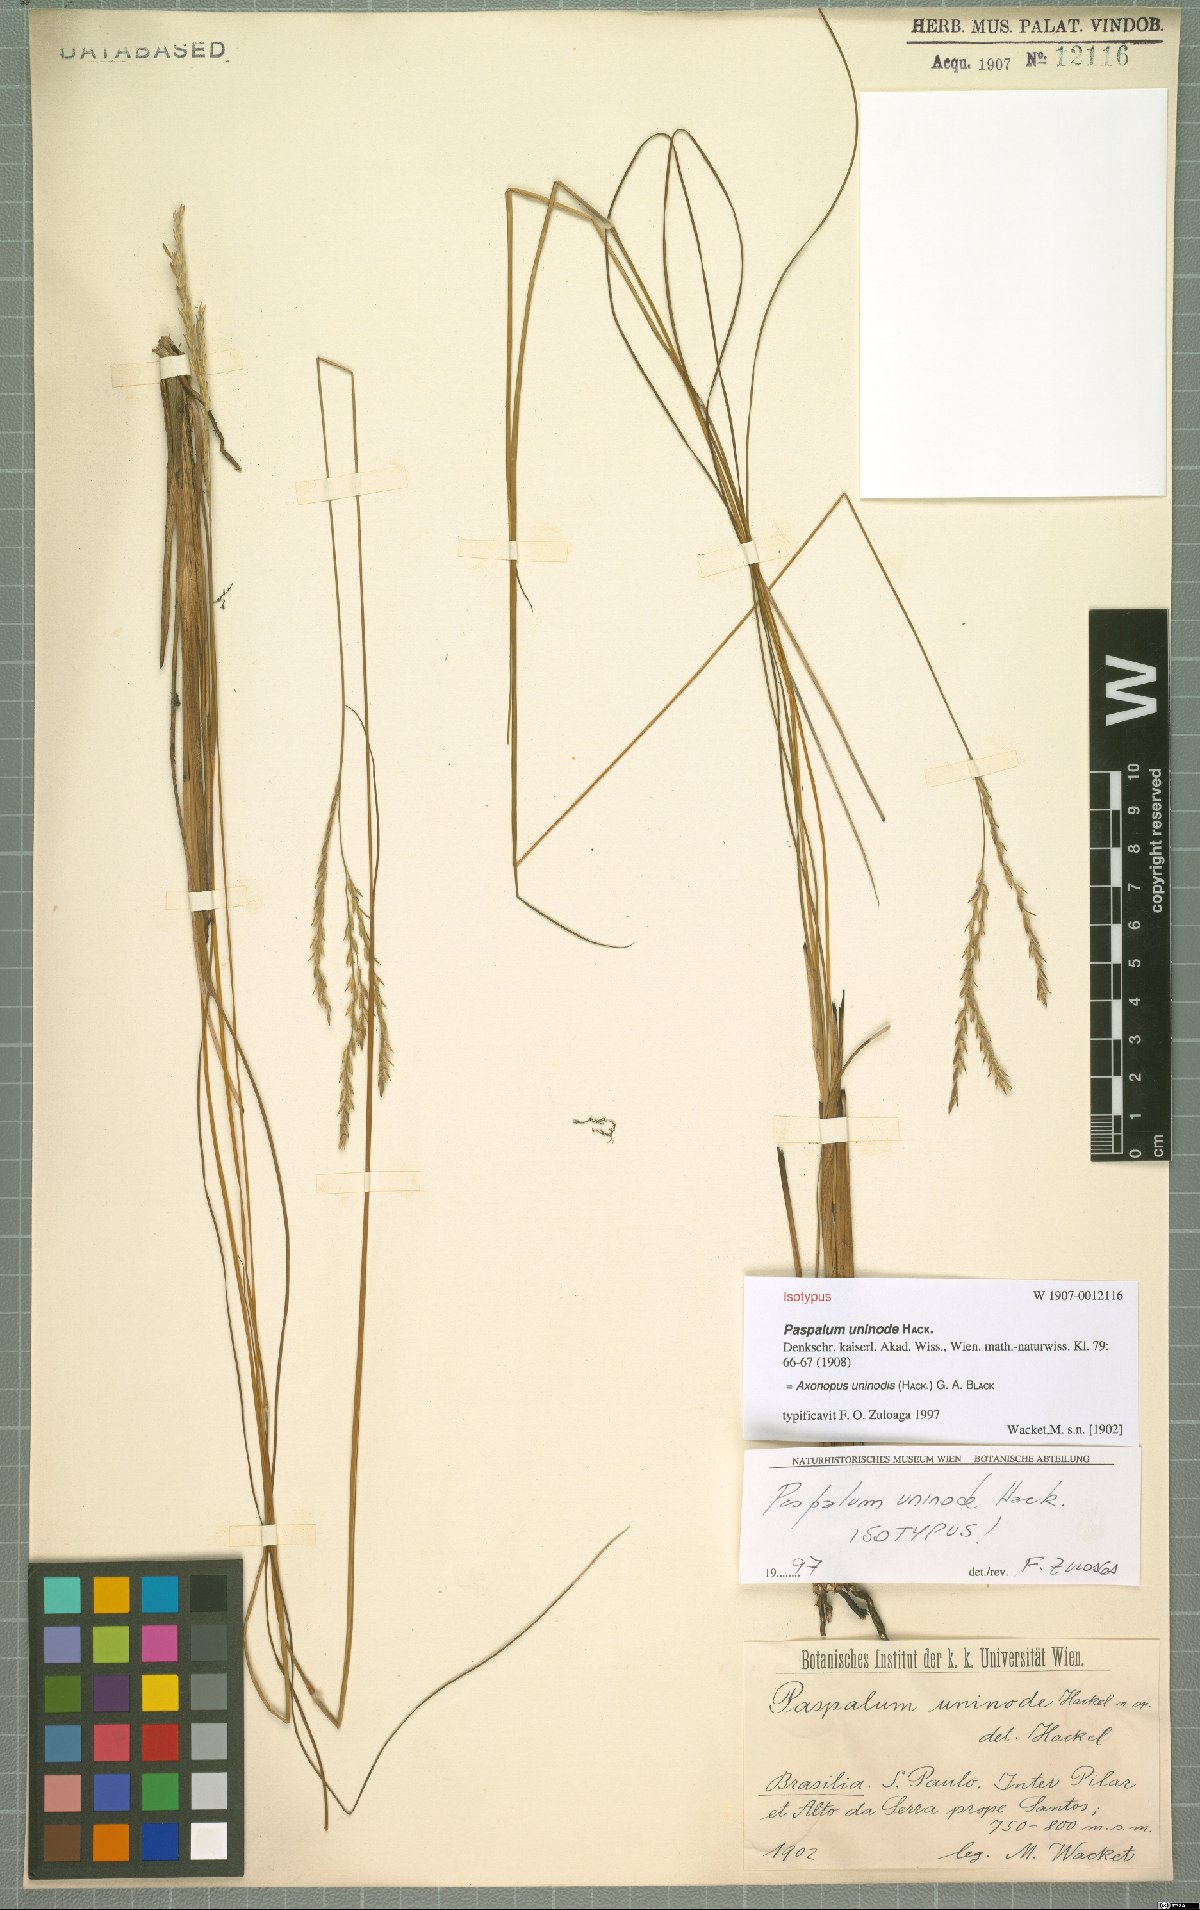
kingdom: Plantae
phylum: Tracheophyta
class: Liliopsida
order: Poales
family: Poaceae
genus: Axonopus
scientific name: Axonopus comans
